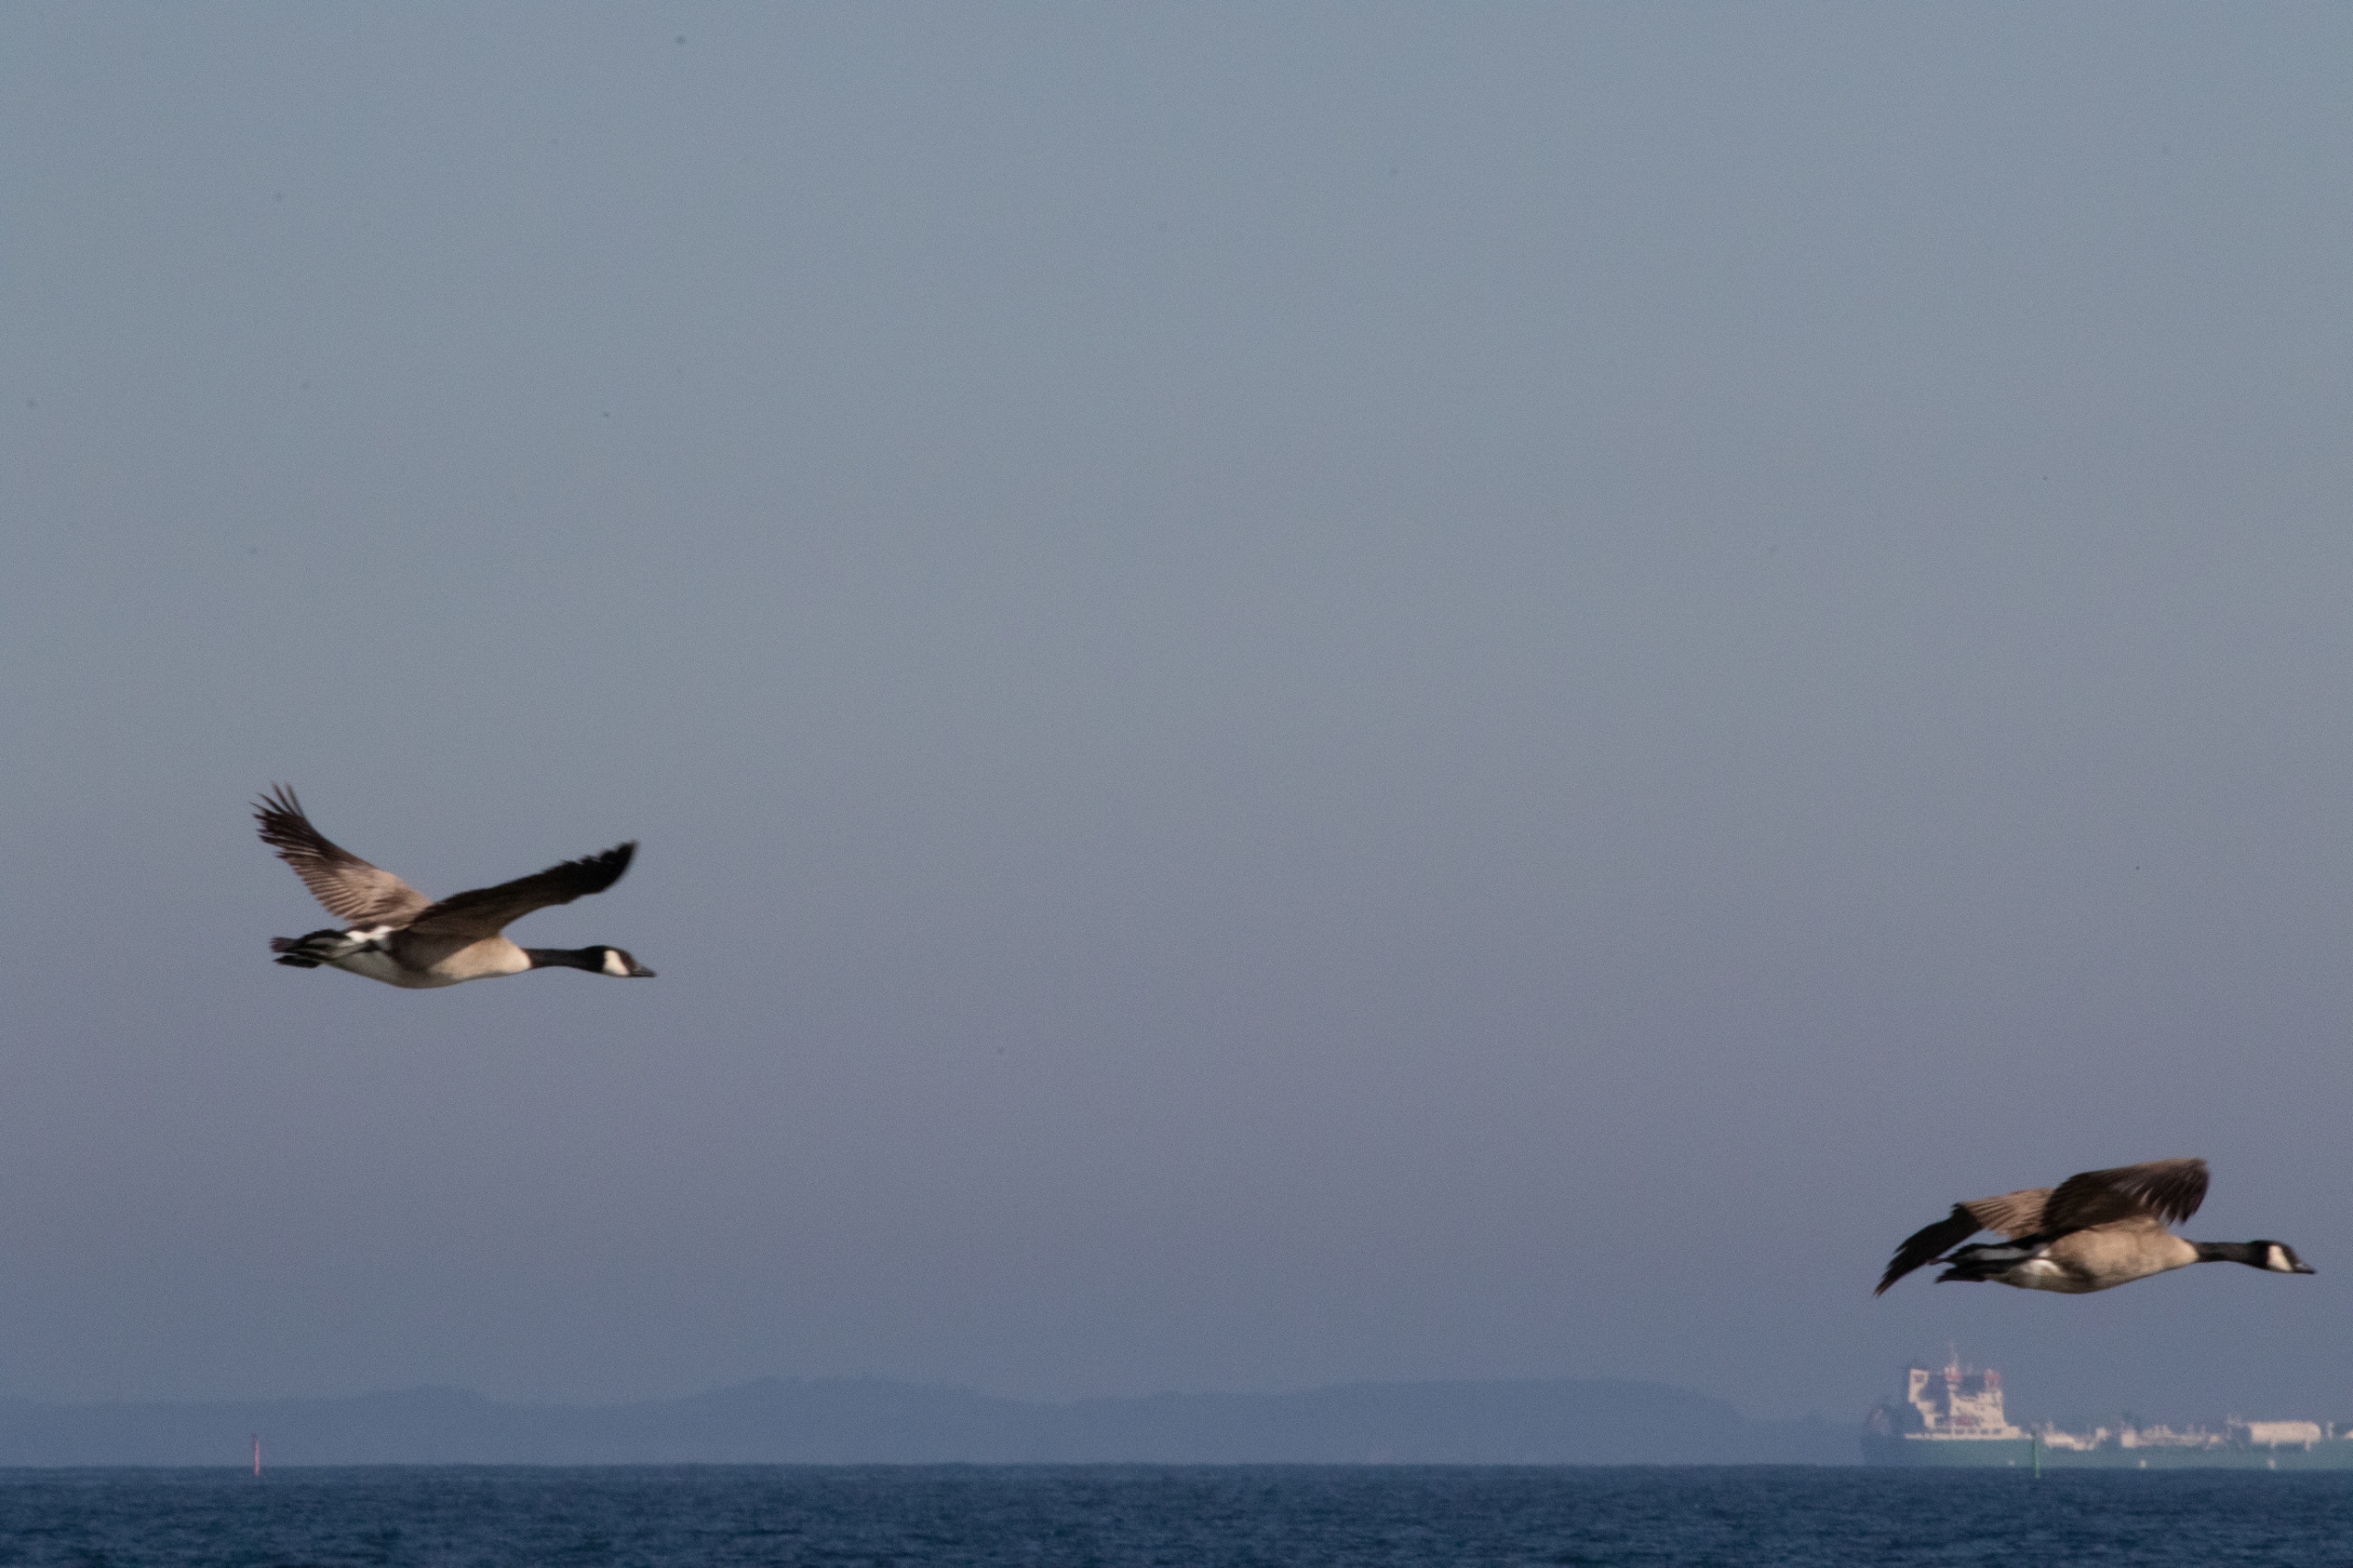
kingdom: Animalia
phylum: Chordata
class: Aves
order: Anseriformes
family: Anatidae
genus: Branta
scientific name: Branta canadensis
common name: Canadagås
